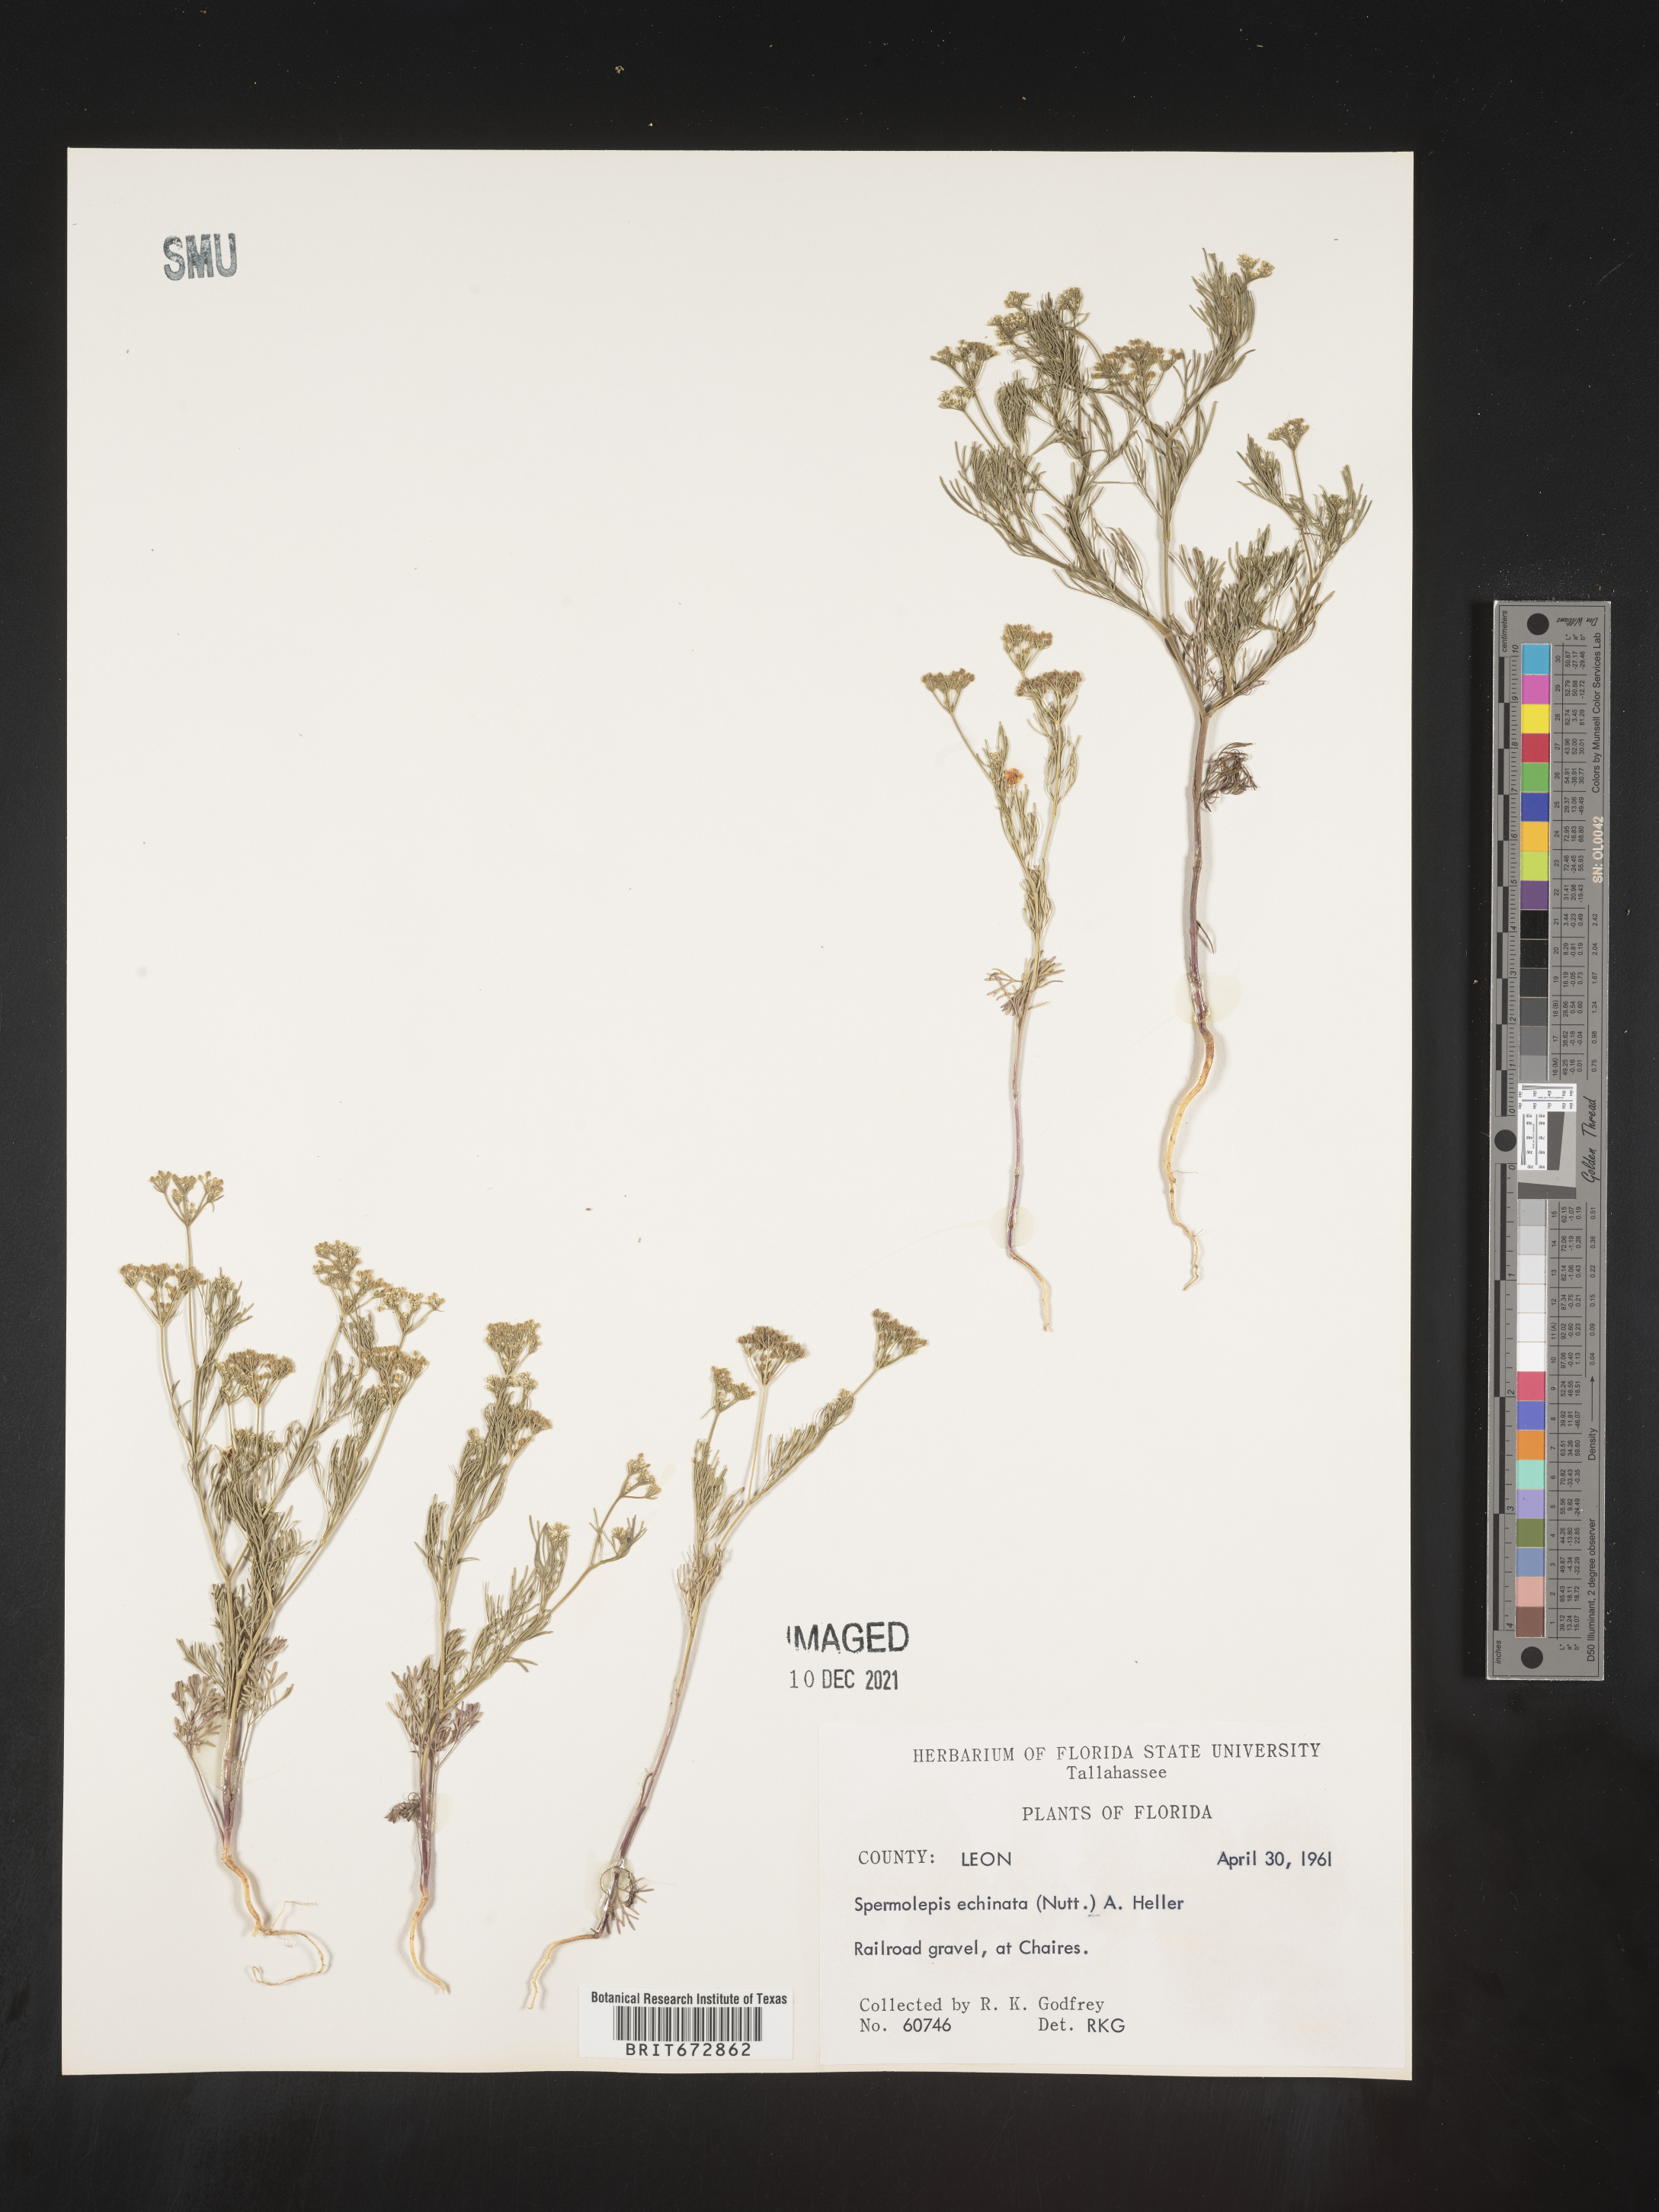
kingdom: Plantae
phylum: Tracheophyta
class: Magnoliopsida
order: Apiales
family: Apiaceae
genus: Spermolepis
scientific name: Spermolepis echinata
